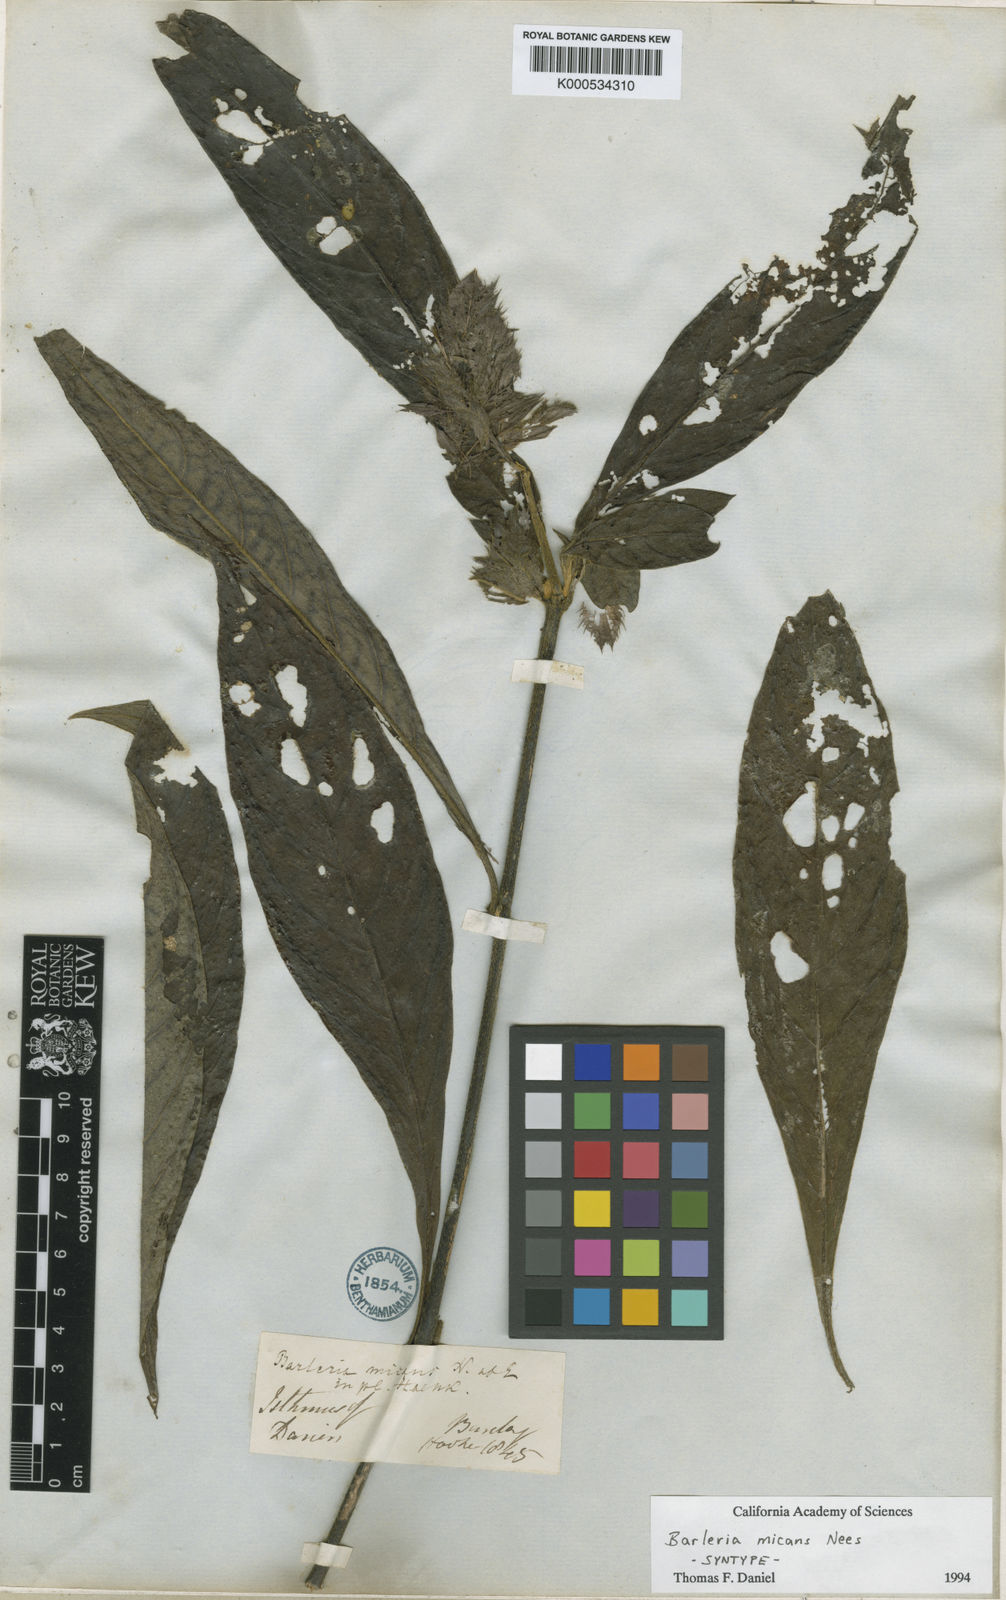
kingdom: Plantae
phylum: Tracheophyta
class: Magnoliopsida
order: Lamiales
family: Acanthaceae
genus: Barleria
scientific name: Barleria oenotheroides
